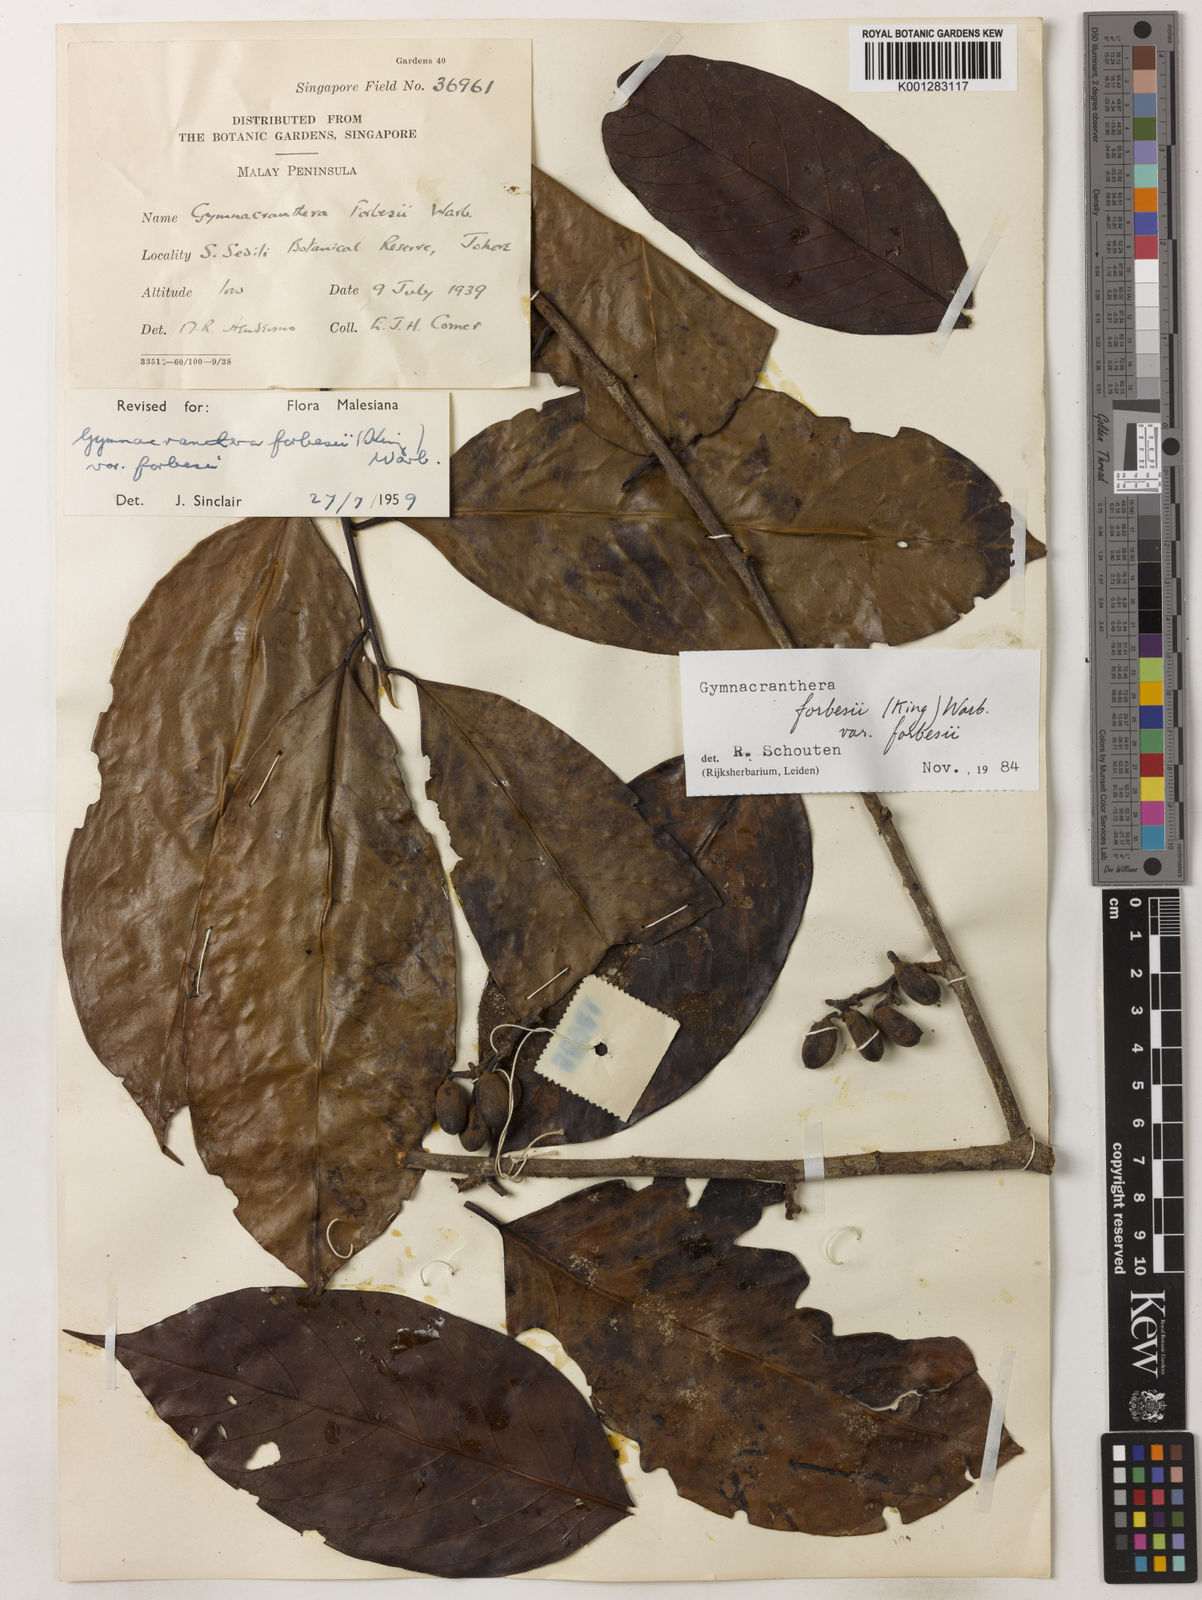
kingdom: Plantae
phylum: Tracheophyta
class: Magnoliopsida
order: Magnoliales
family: Myristicaceae
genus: Gymnacranthera
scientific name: Gymnacranthera forbesii
